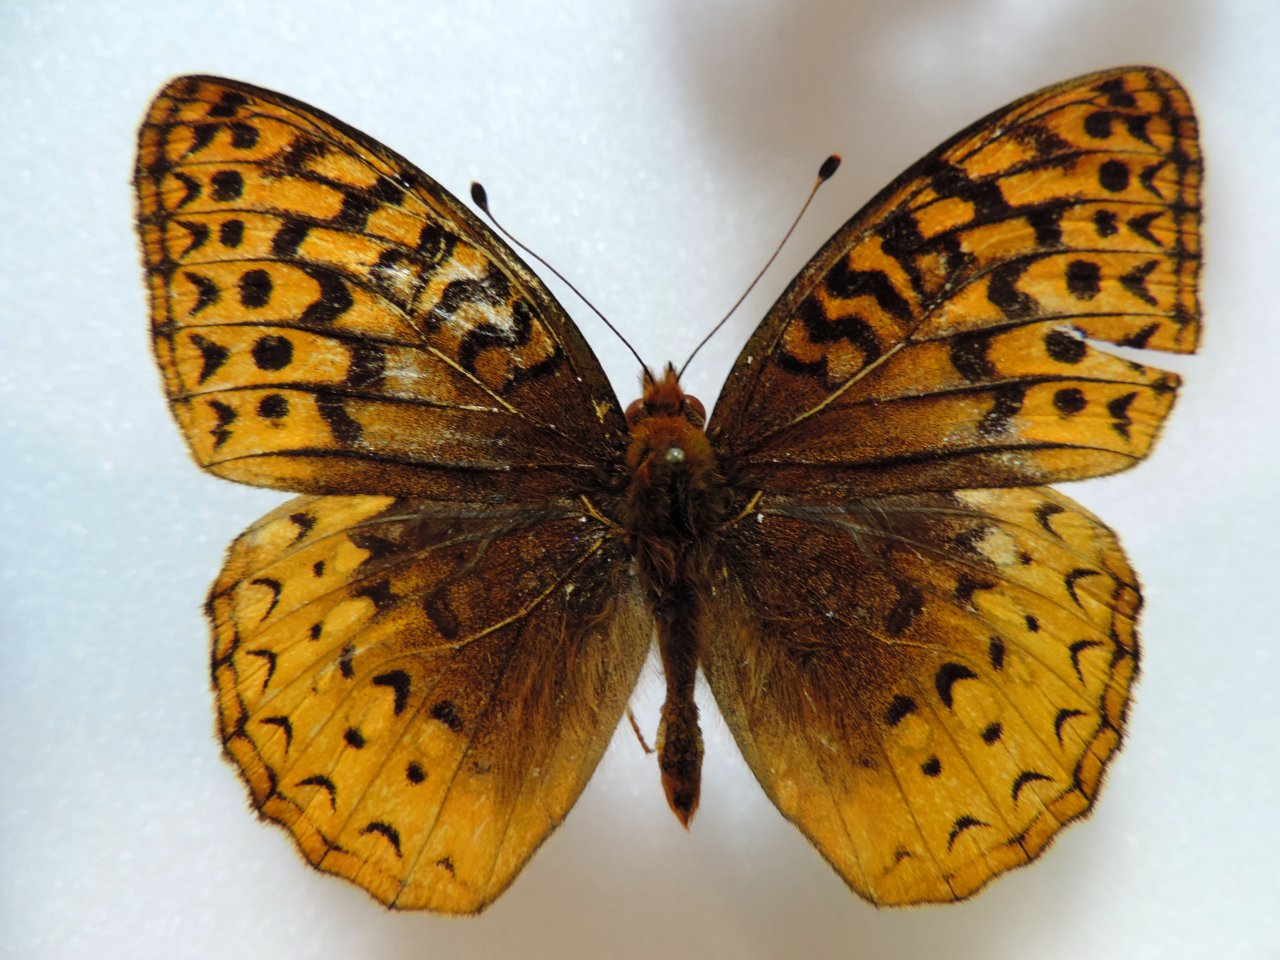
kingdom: Animalia
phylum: Arthropoda
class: Insecta
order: Lepidoptera
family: Nymphalidae
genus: Speyeria
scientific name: Speyeria cybele
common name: Great Spangled Fritillary
